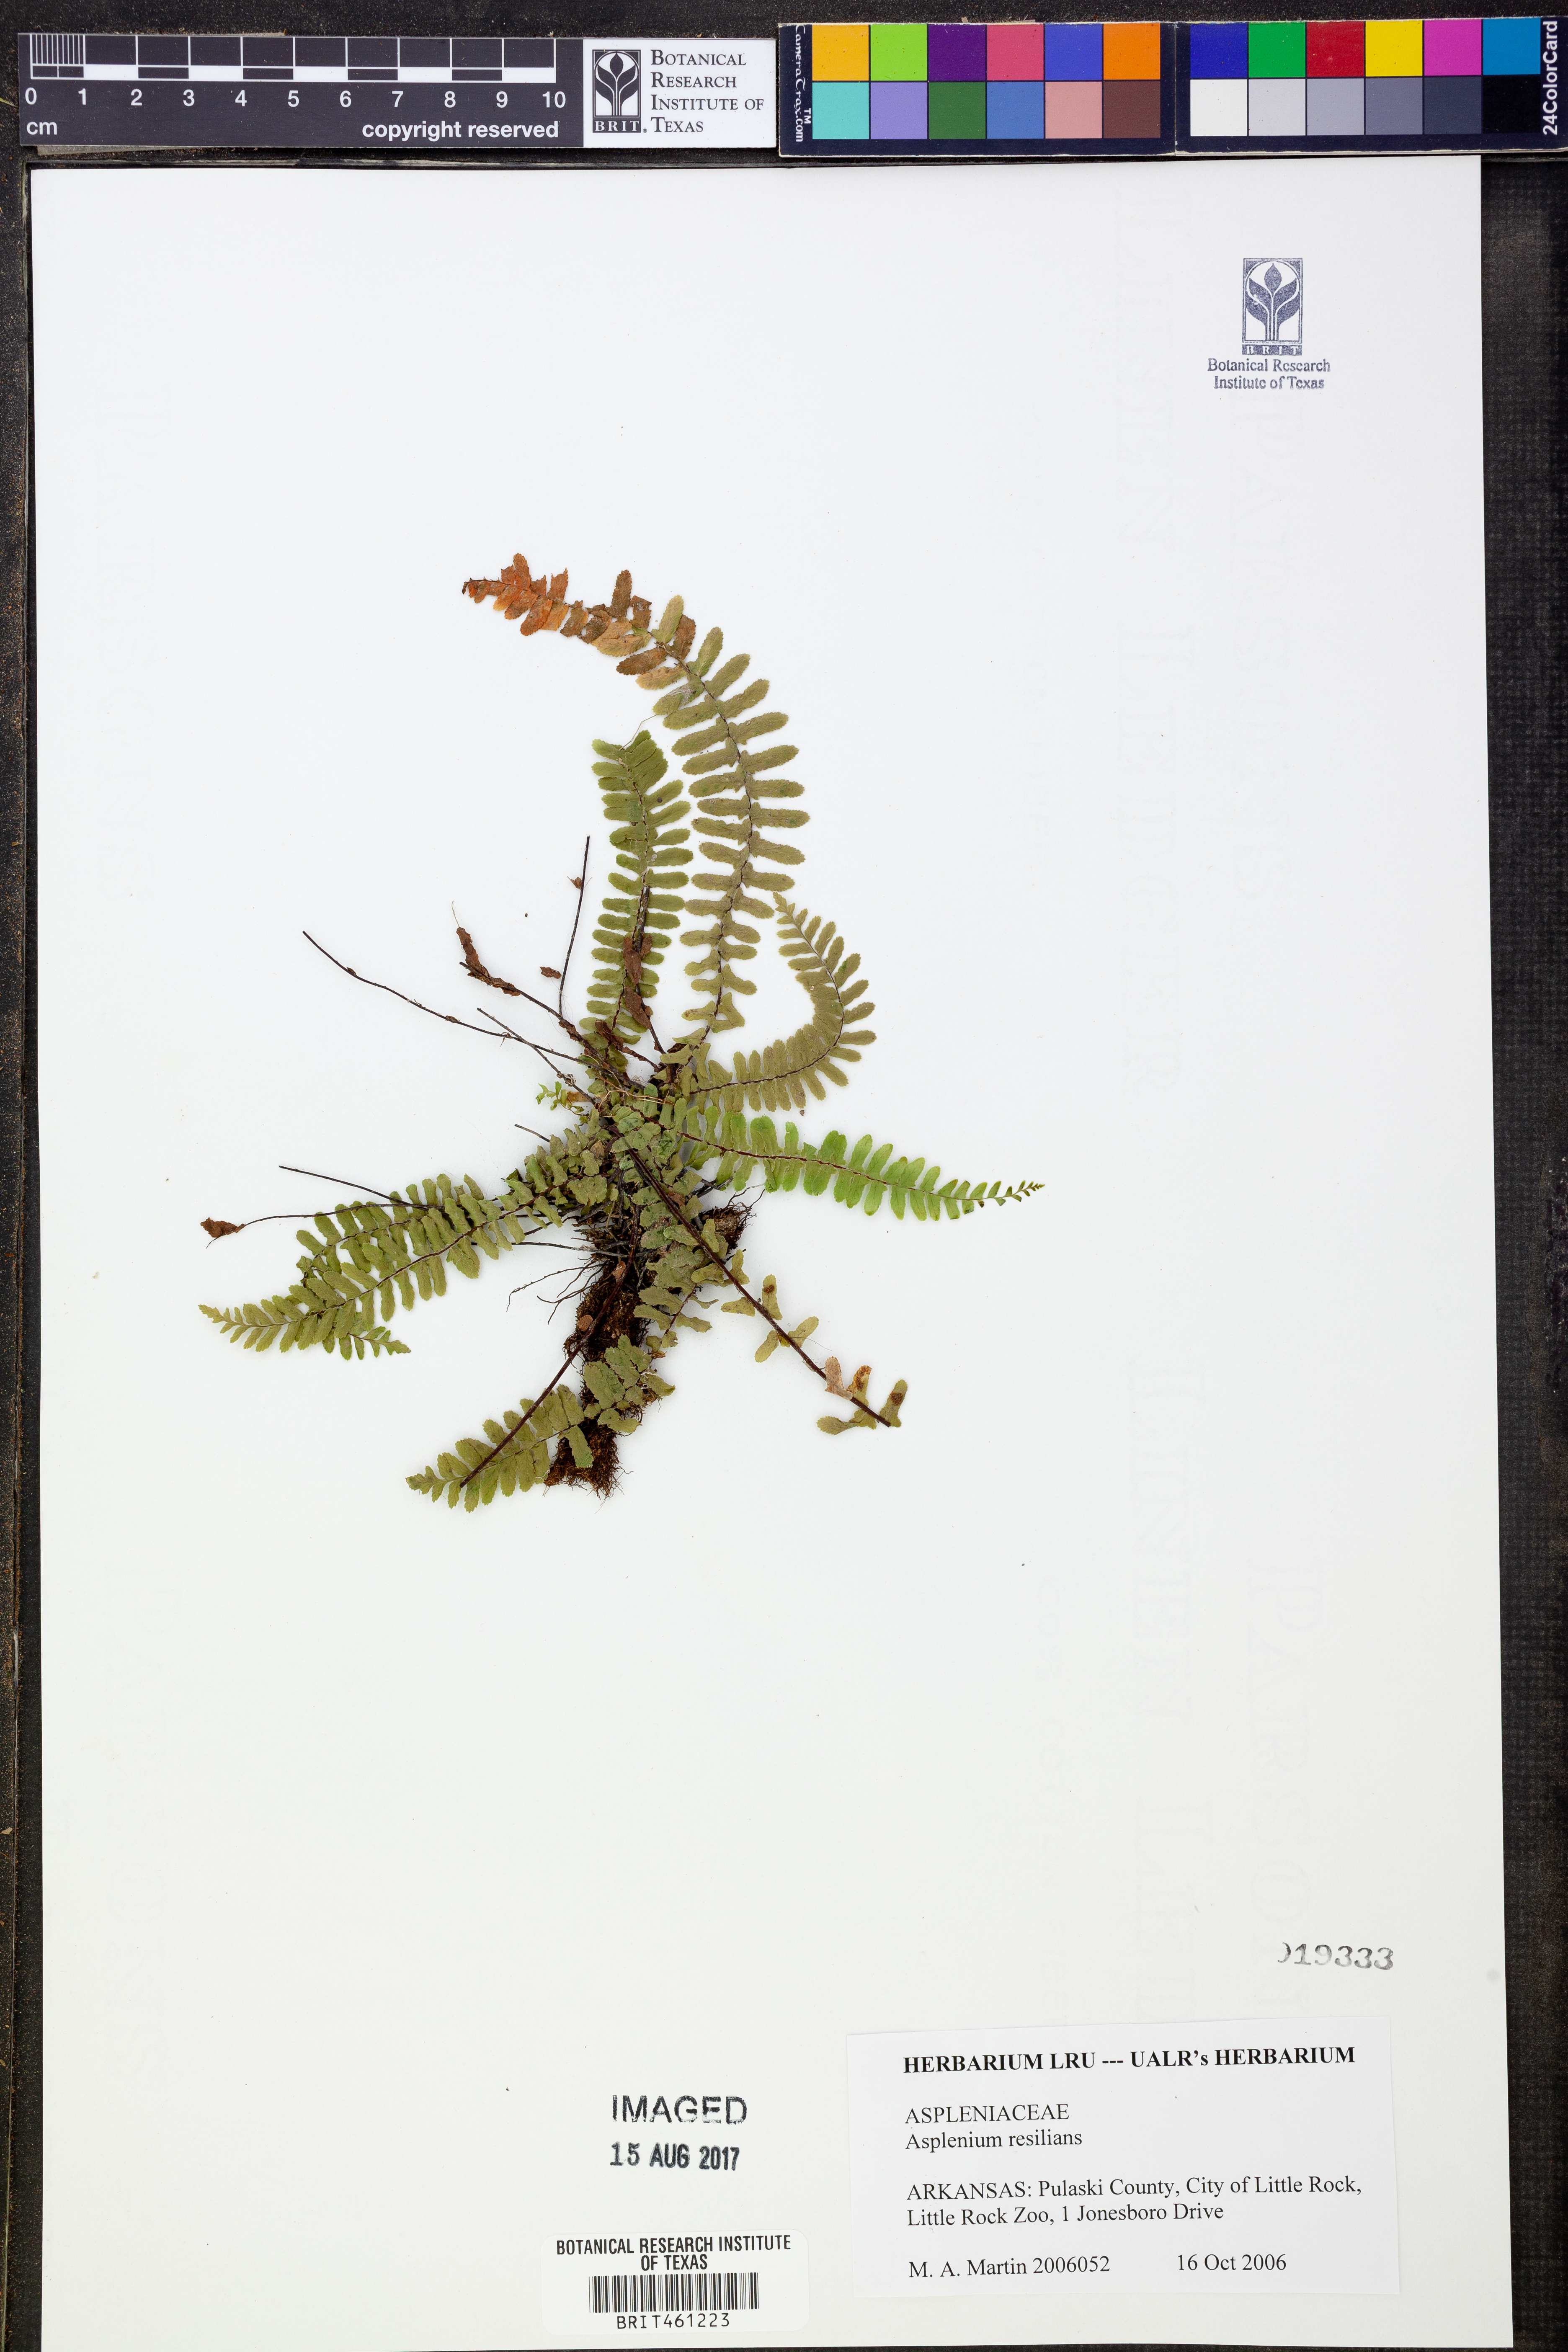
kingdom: Plantae
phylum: Tracheophyta
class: Polypodiopsida
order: Polypodiales
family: Aspleniaceae
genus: Asplenium
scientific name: Asplenium resiliens
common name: Blackstem spleenwort
